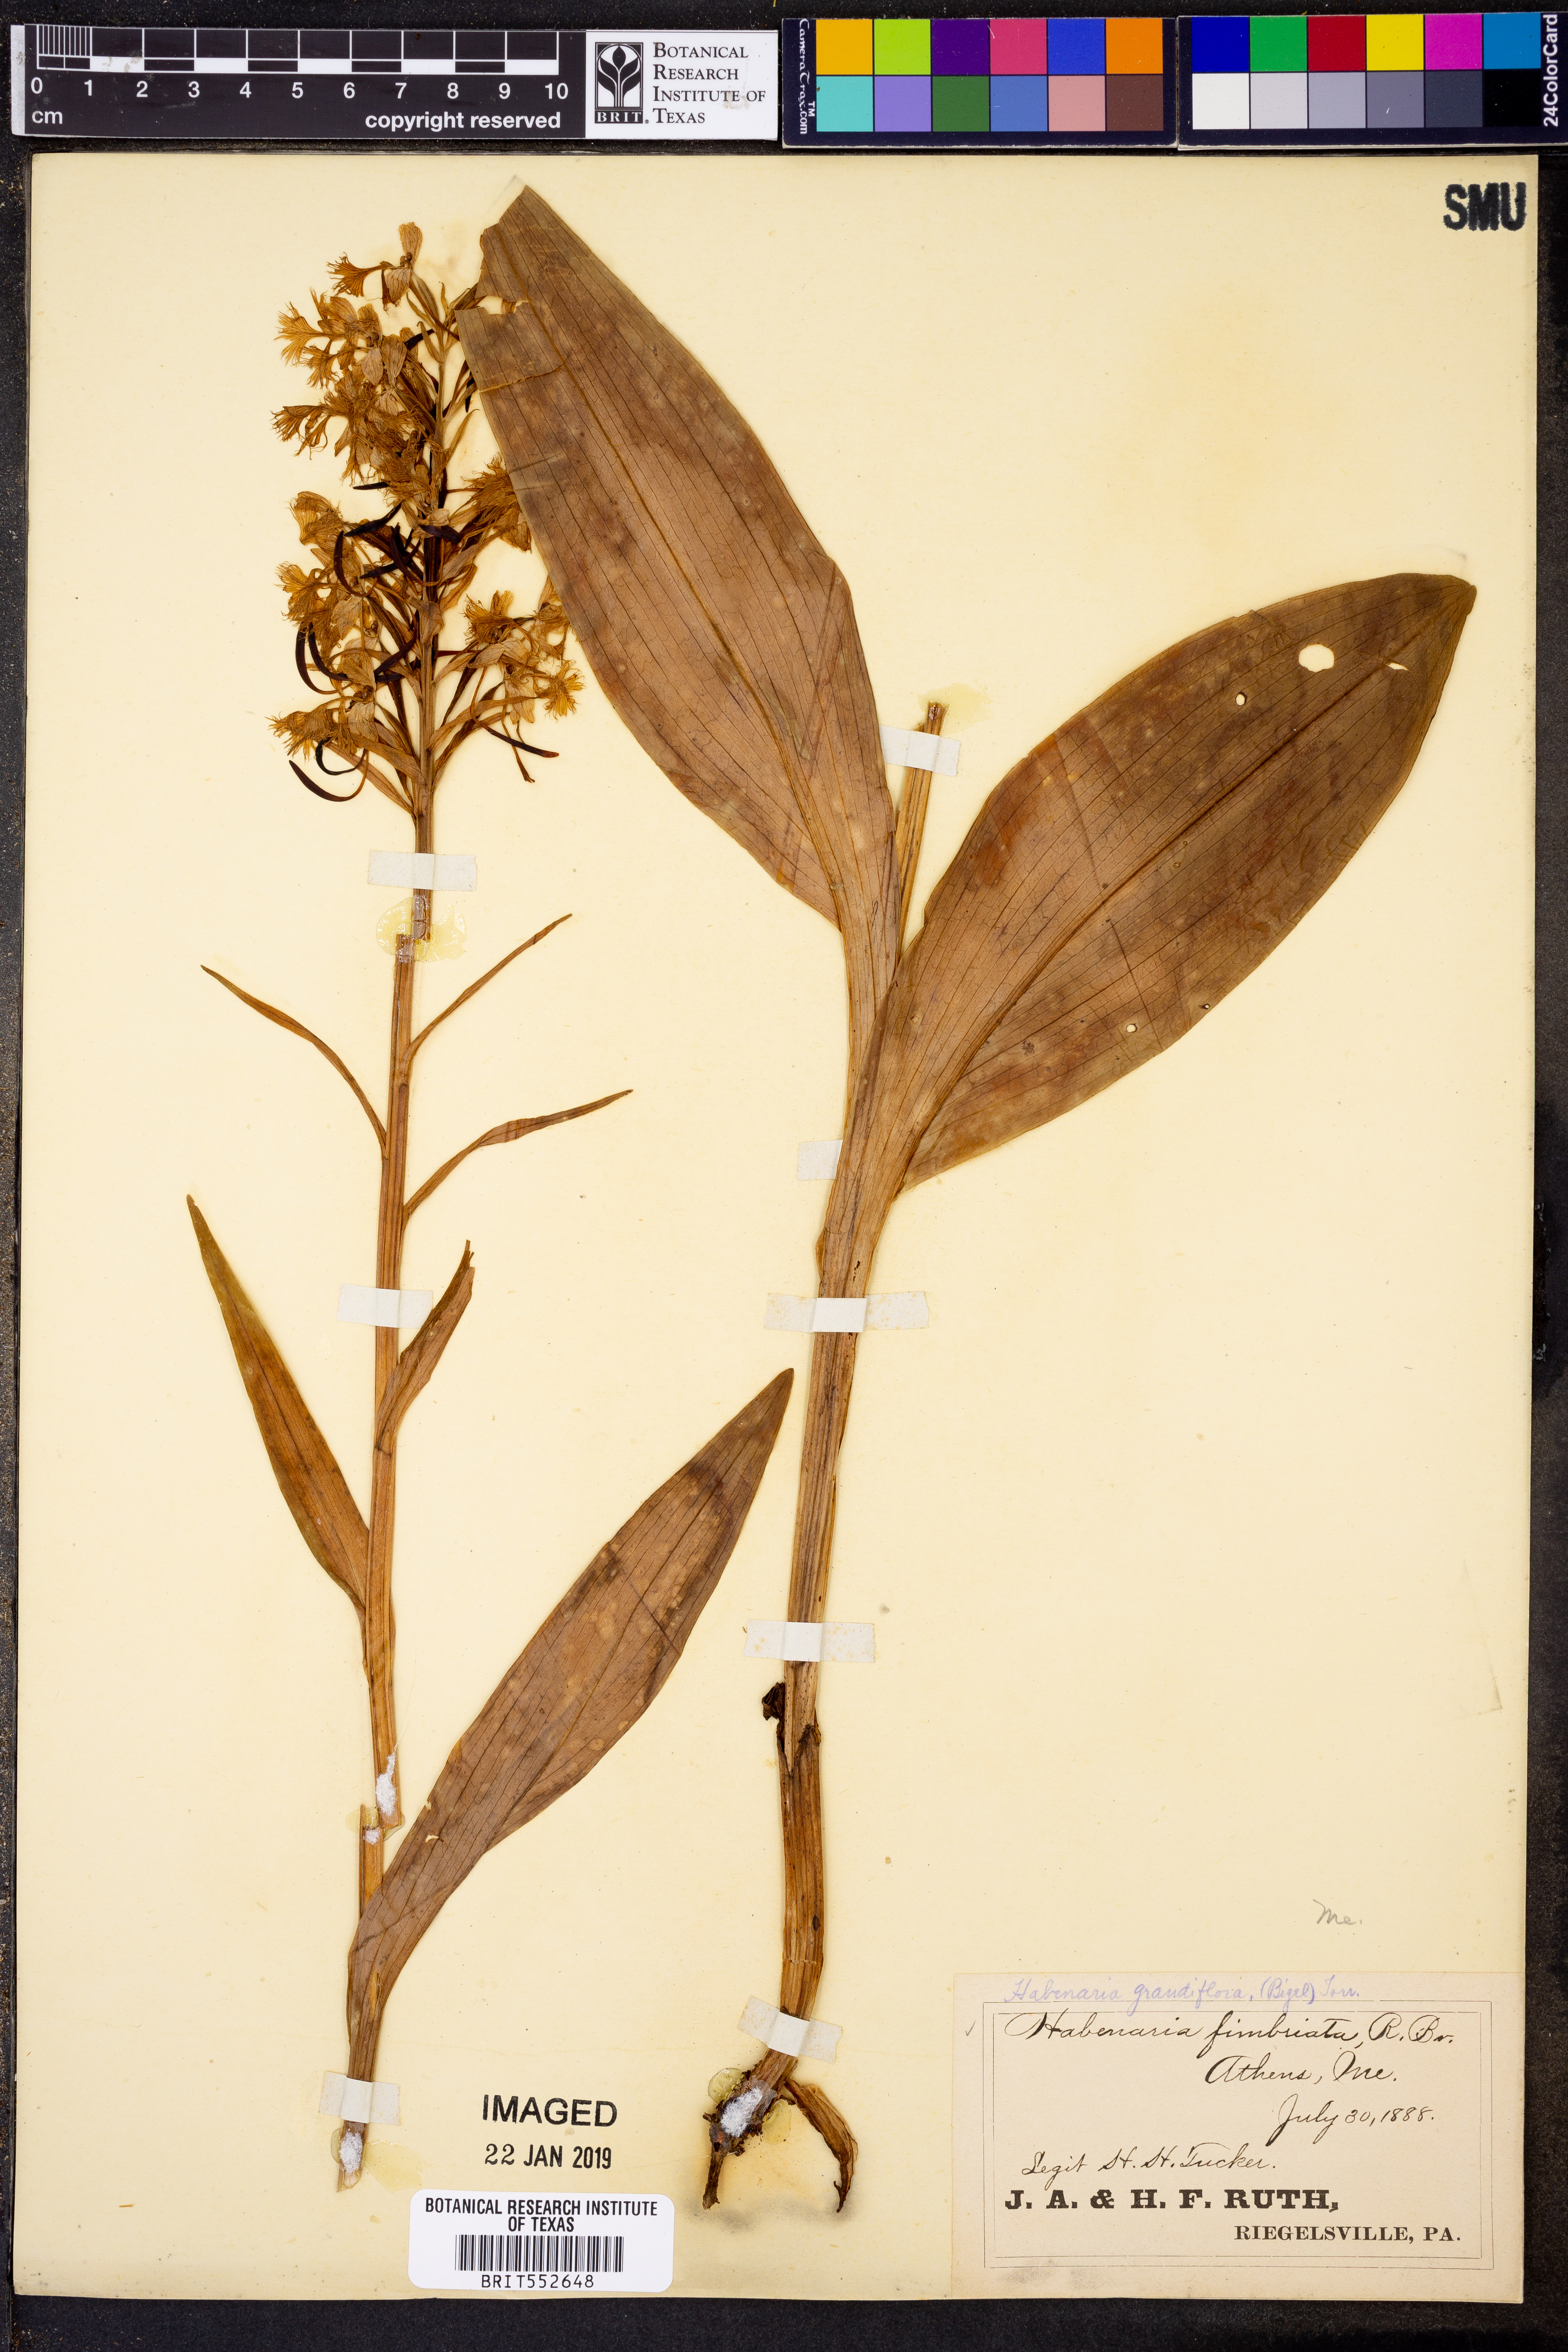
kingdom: Plantae
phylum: Tracheophyta
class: Liliopsida
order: Asparagales
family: Orchidaceae
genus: Platanthera
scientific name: Platanthera grandiflora
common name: Greater purple fringed orchid
